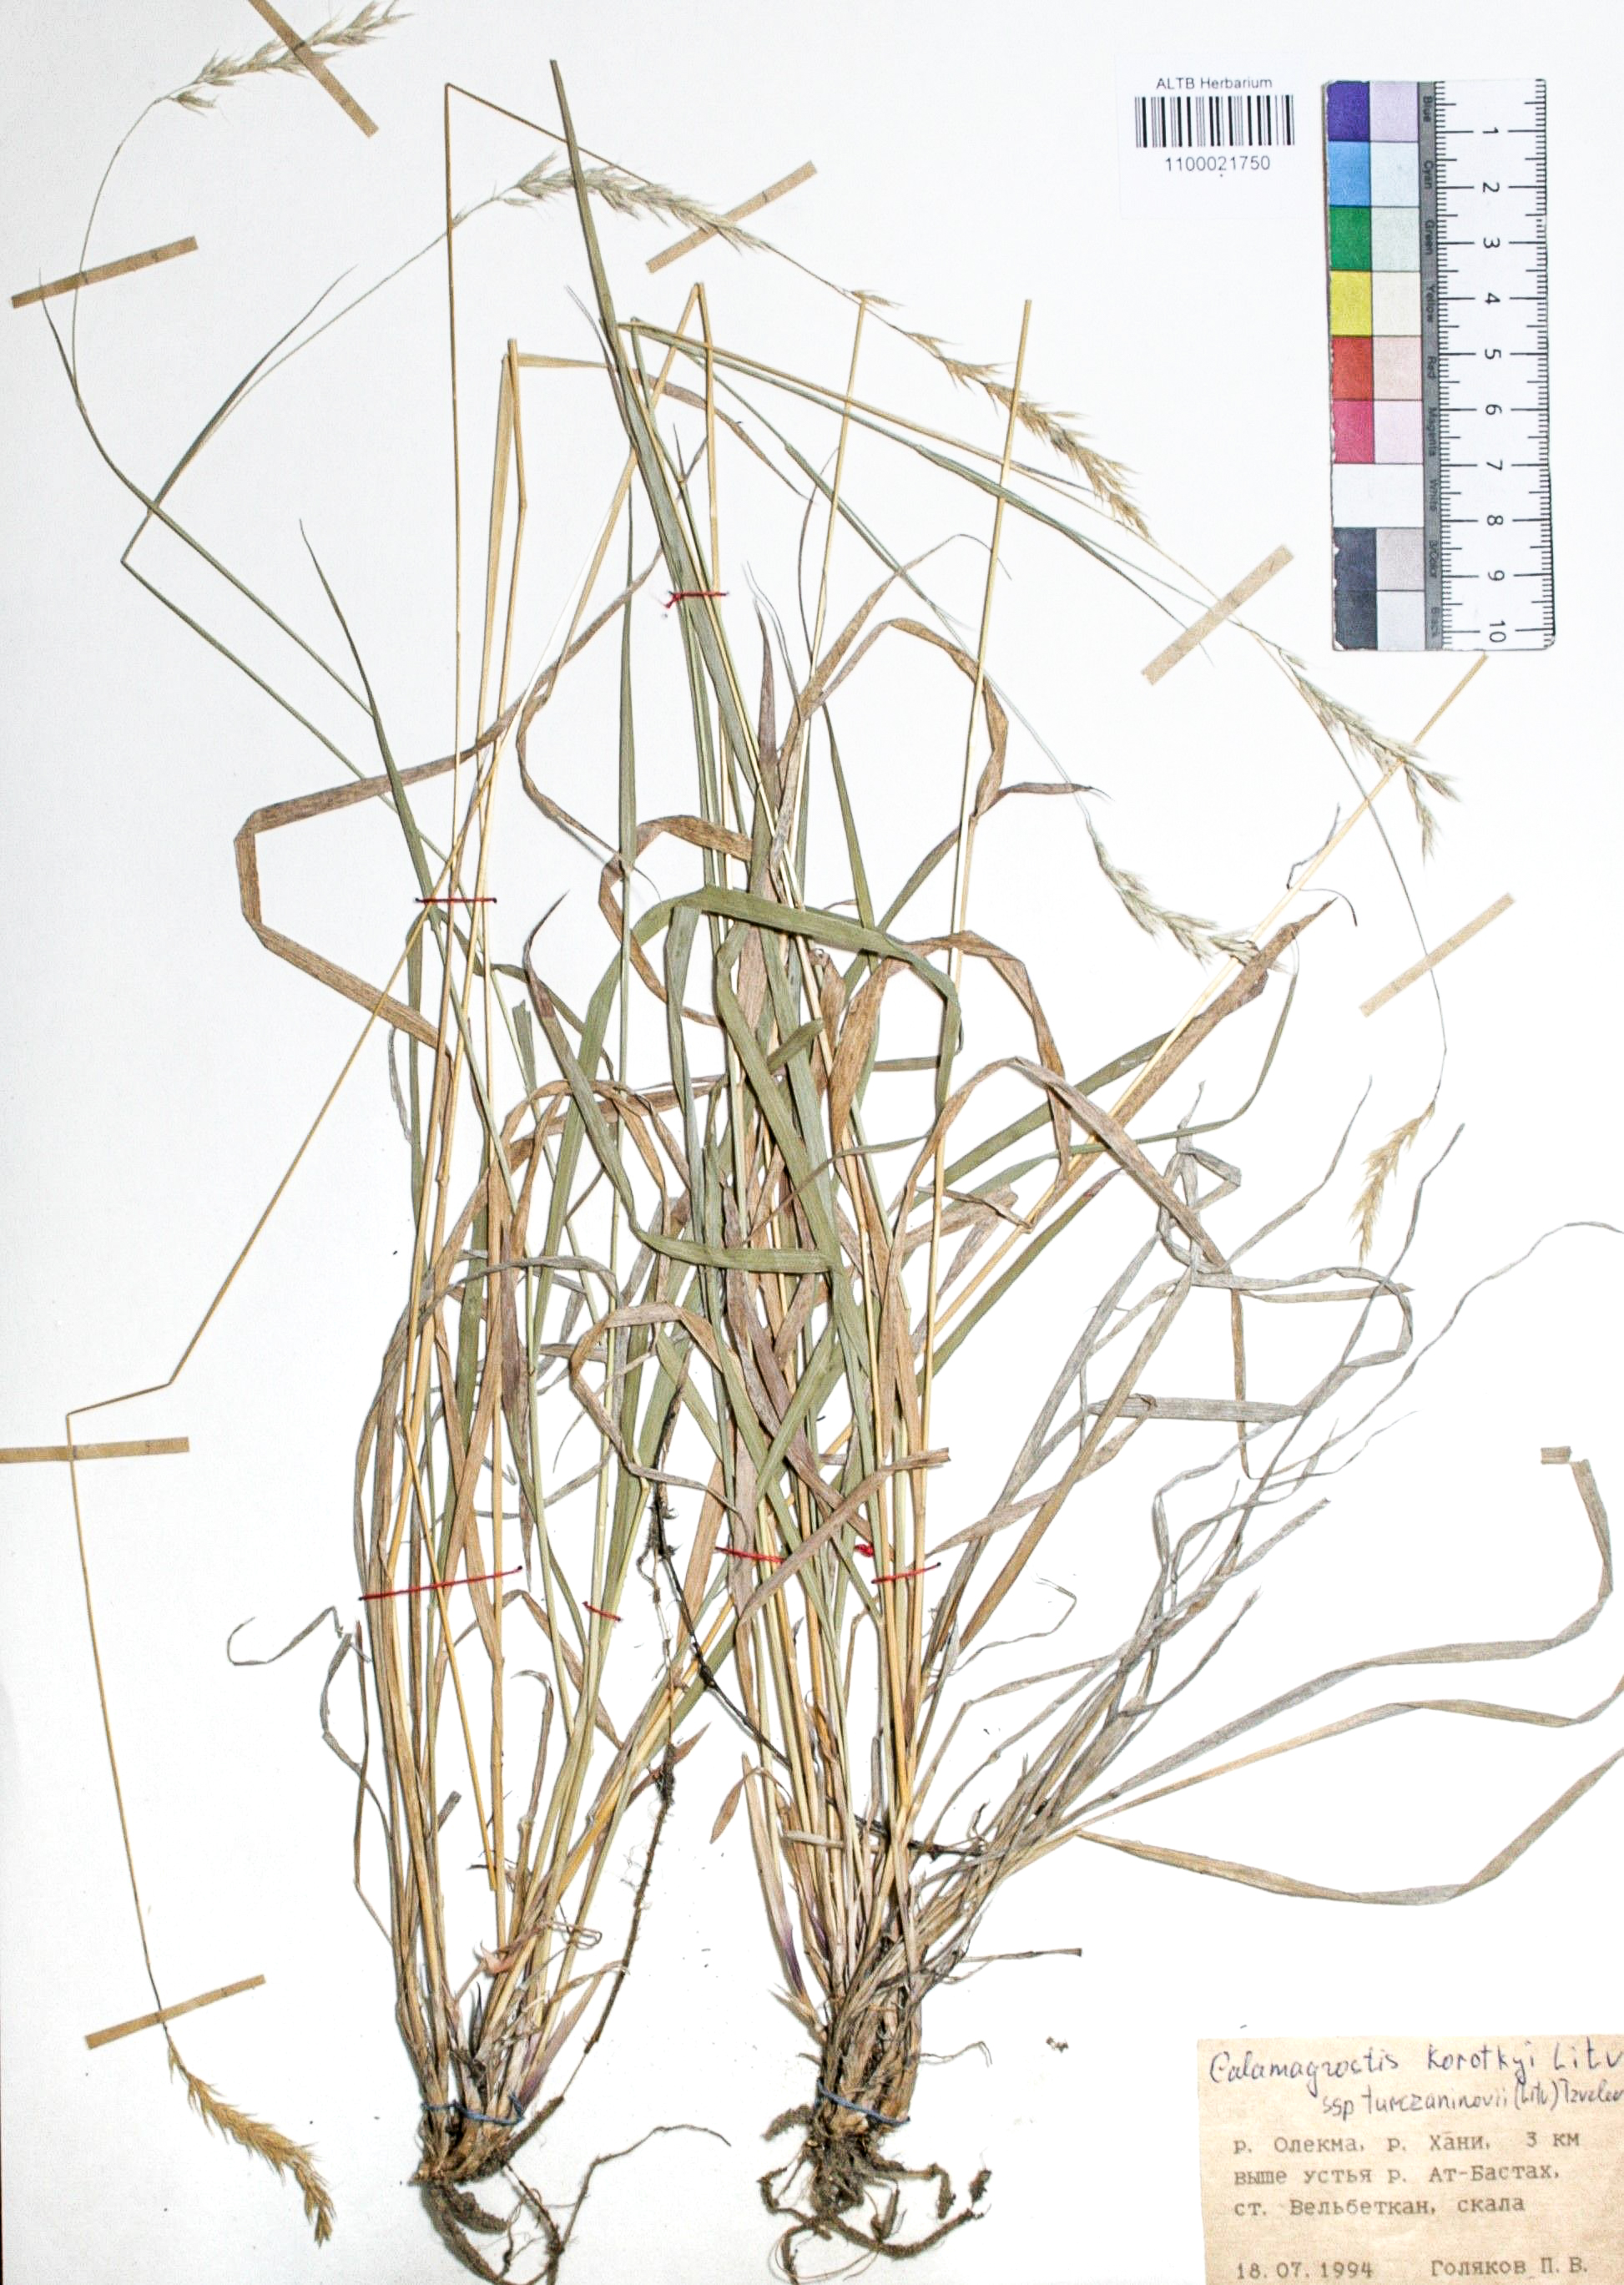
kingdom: Plantae
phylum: Tracheophyta
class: Liliopsida
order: Poales
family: Poaceae
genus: Calamagrostis
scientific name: Calamagrostis korotkyi
